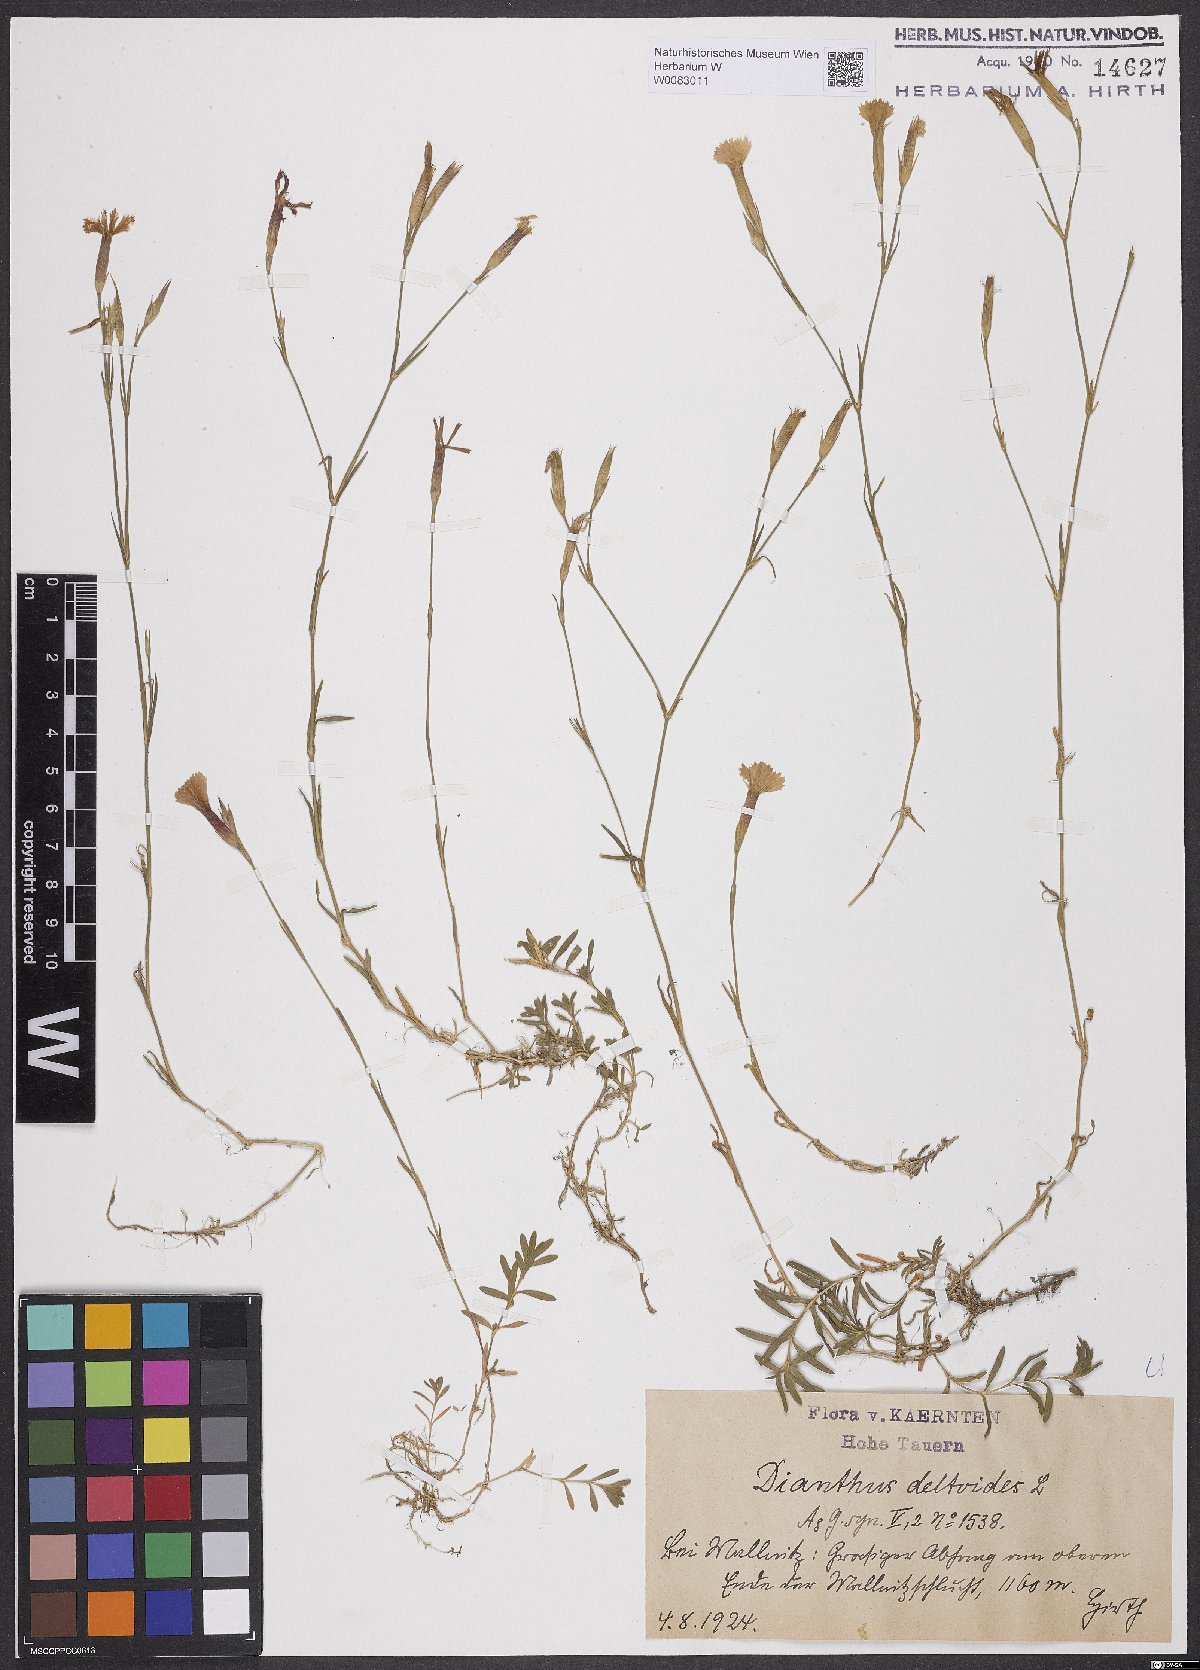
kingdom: Plantae
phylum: Tracheophyta
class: Magnoliopsida
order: Caryophyllales
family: Caryophyllaceae
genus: Dianthus
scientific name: Dianthus deltoides
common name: Maiden pink
